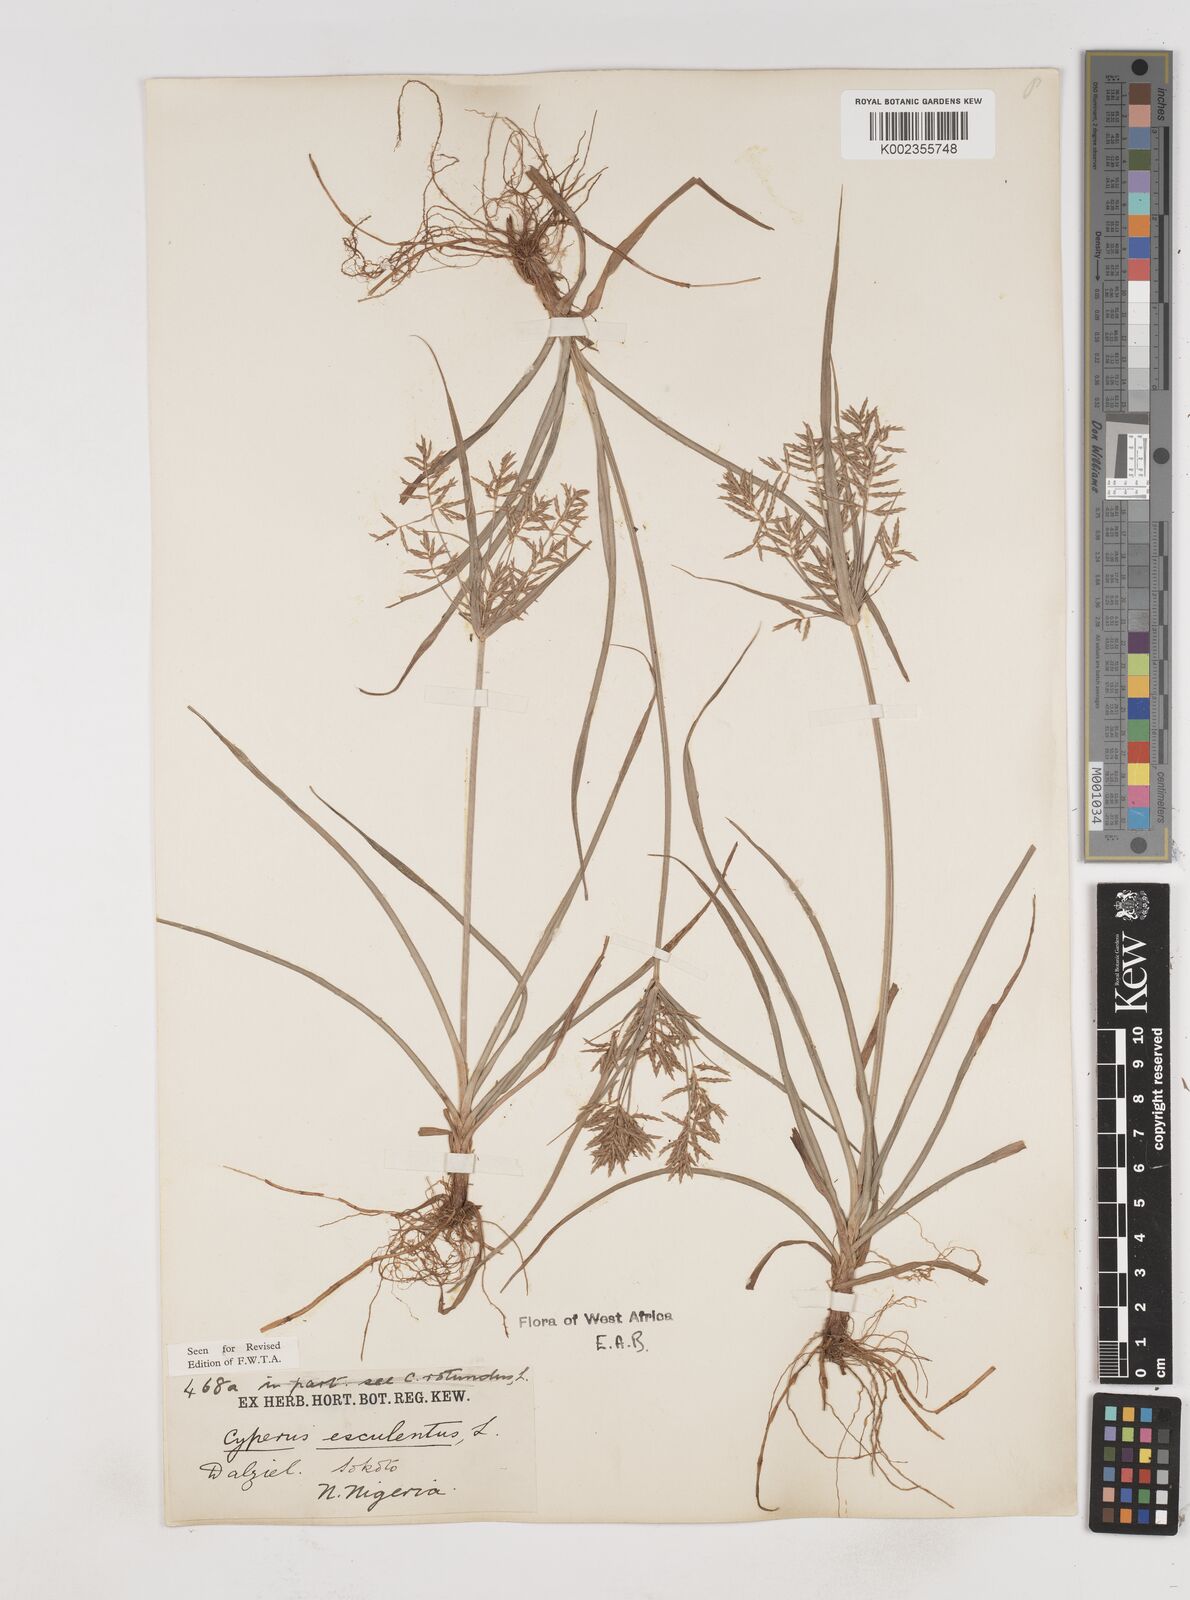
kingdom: Plantae
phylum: Tracheophyta
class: Liliopsida
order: Poales
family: Cyperaceae
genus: Cyperus
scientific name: Cyperus esculentus
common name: Yellow nutsedge
